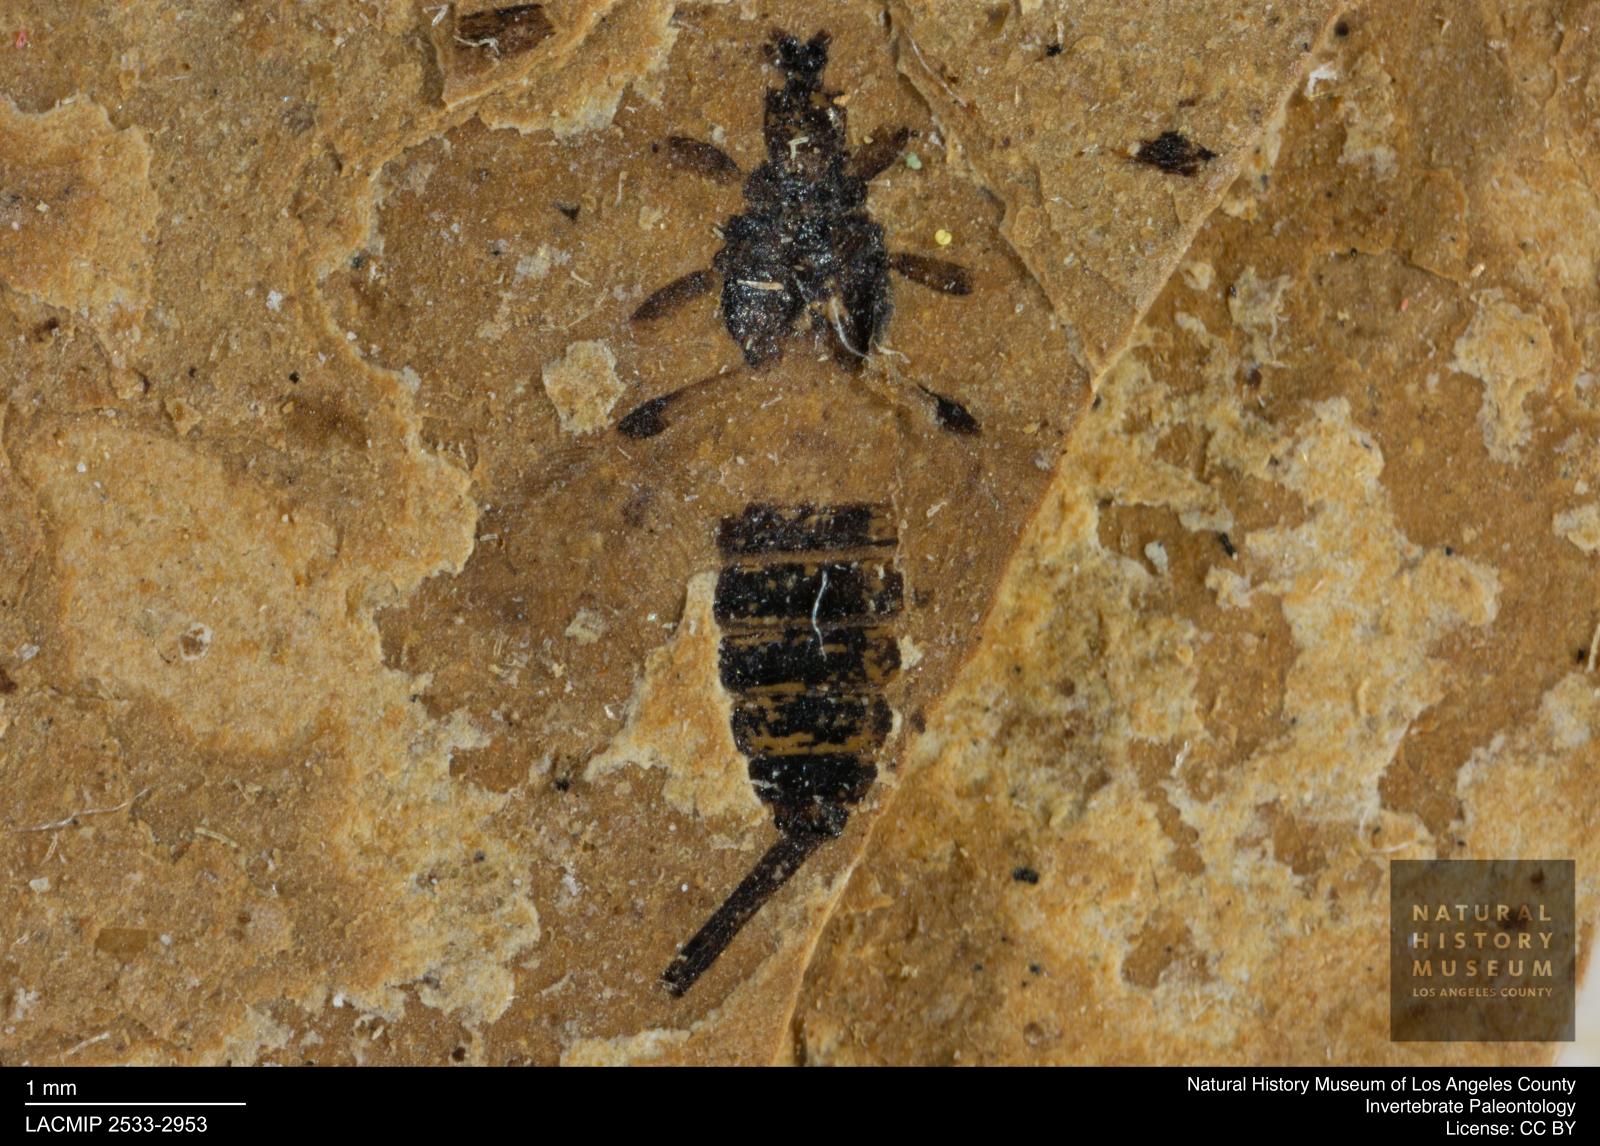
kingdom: Animalia
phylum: Arthropoda
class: Insecta
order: Thysanoptera
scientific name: Thysanoptera
